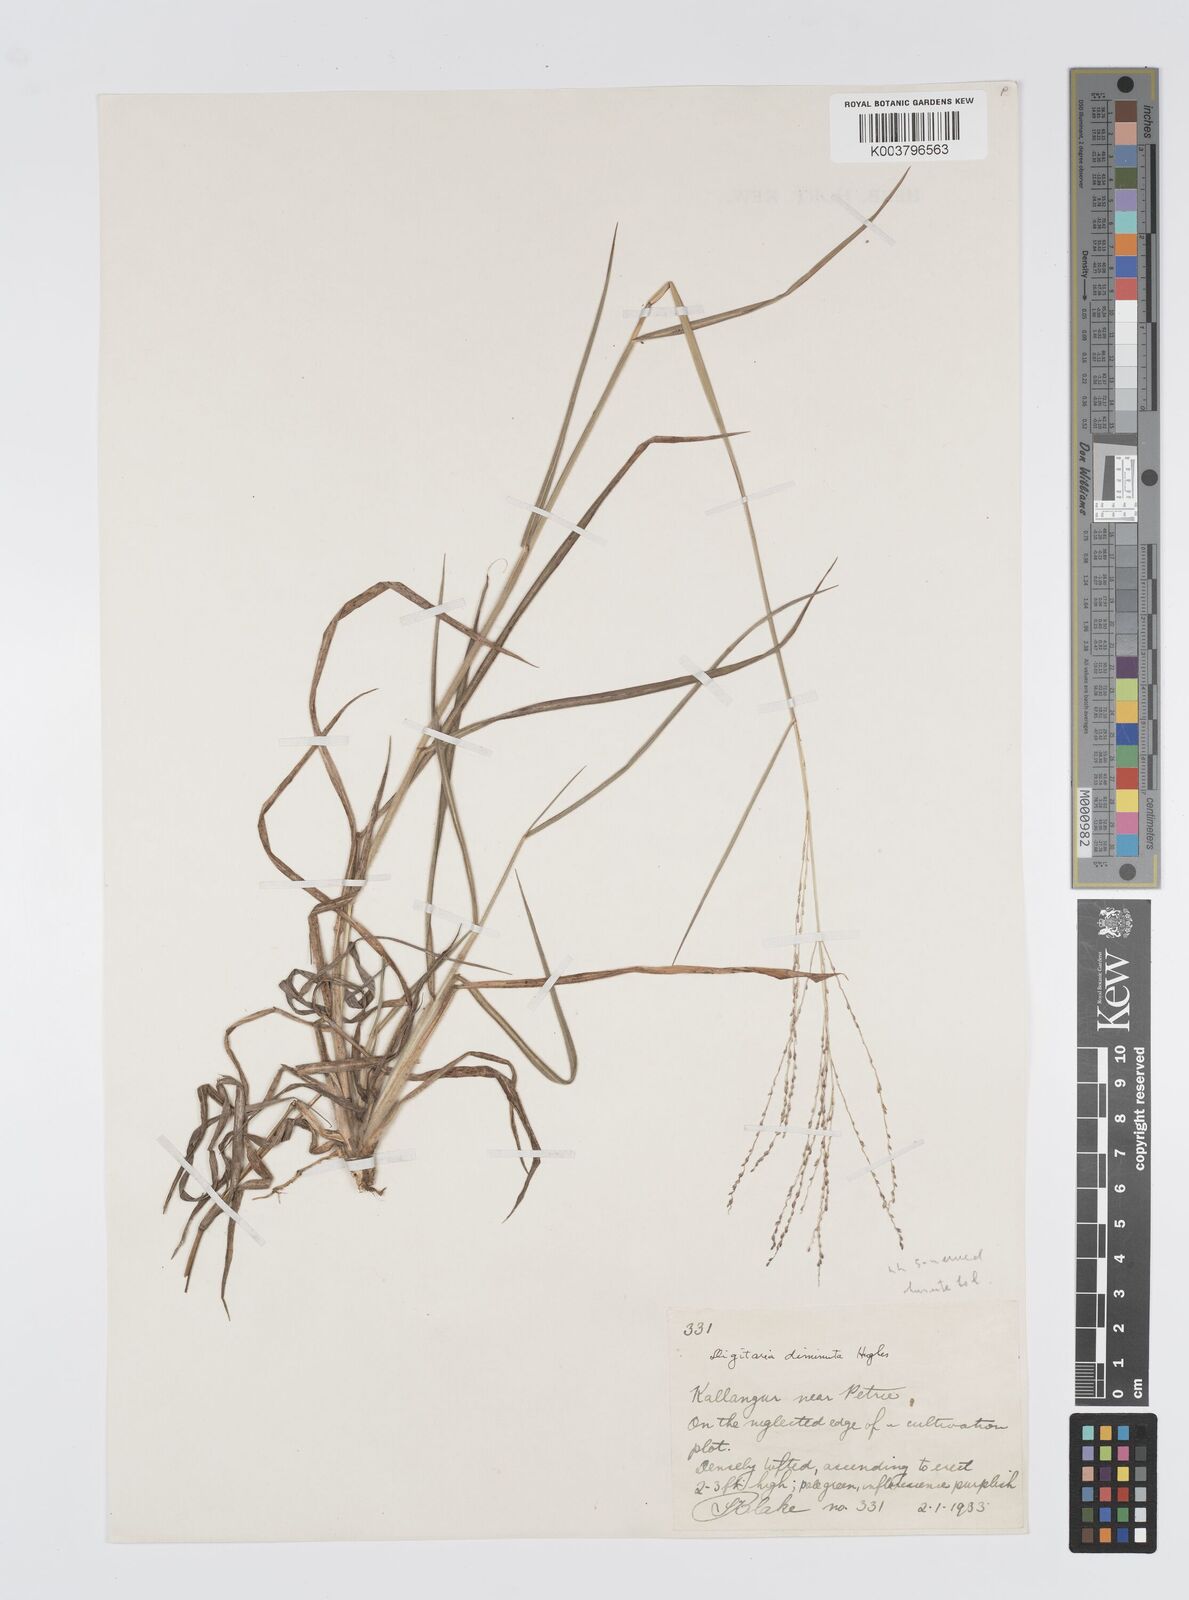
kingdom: Plantae
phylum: Tracheophyta
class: Liliopsida
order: Poales
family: Poaceae
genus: Digitaria
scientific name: Digitaria breviglumis
